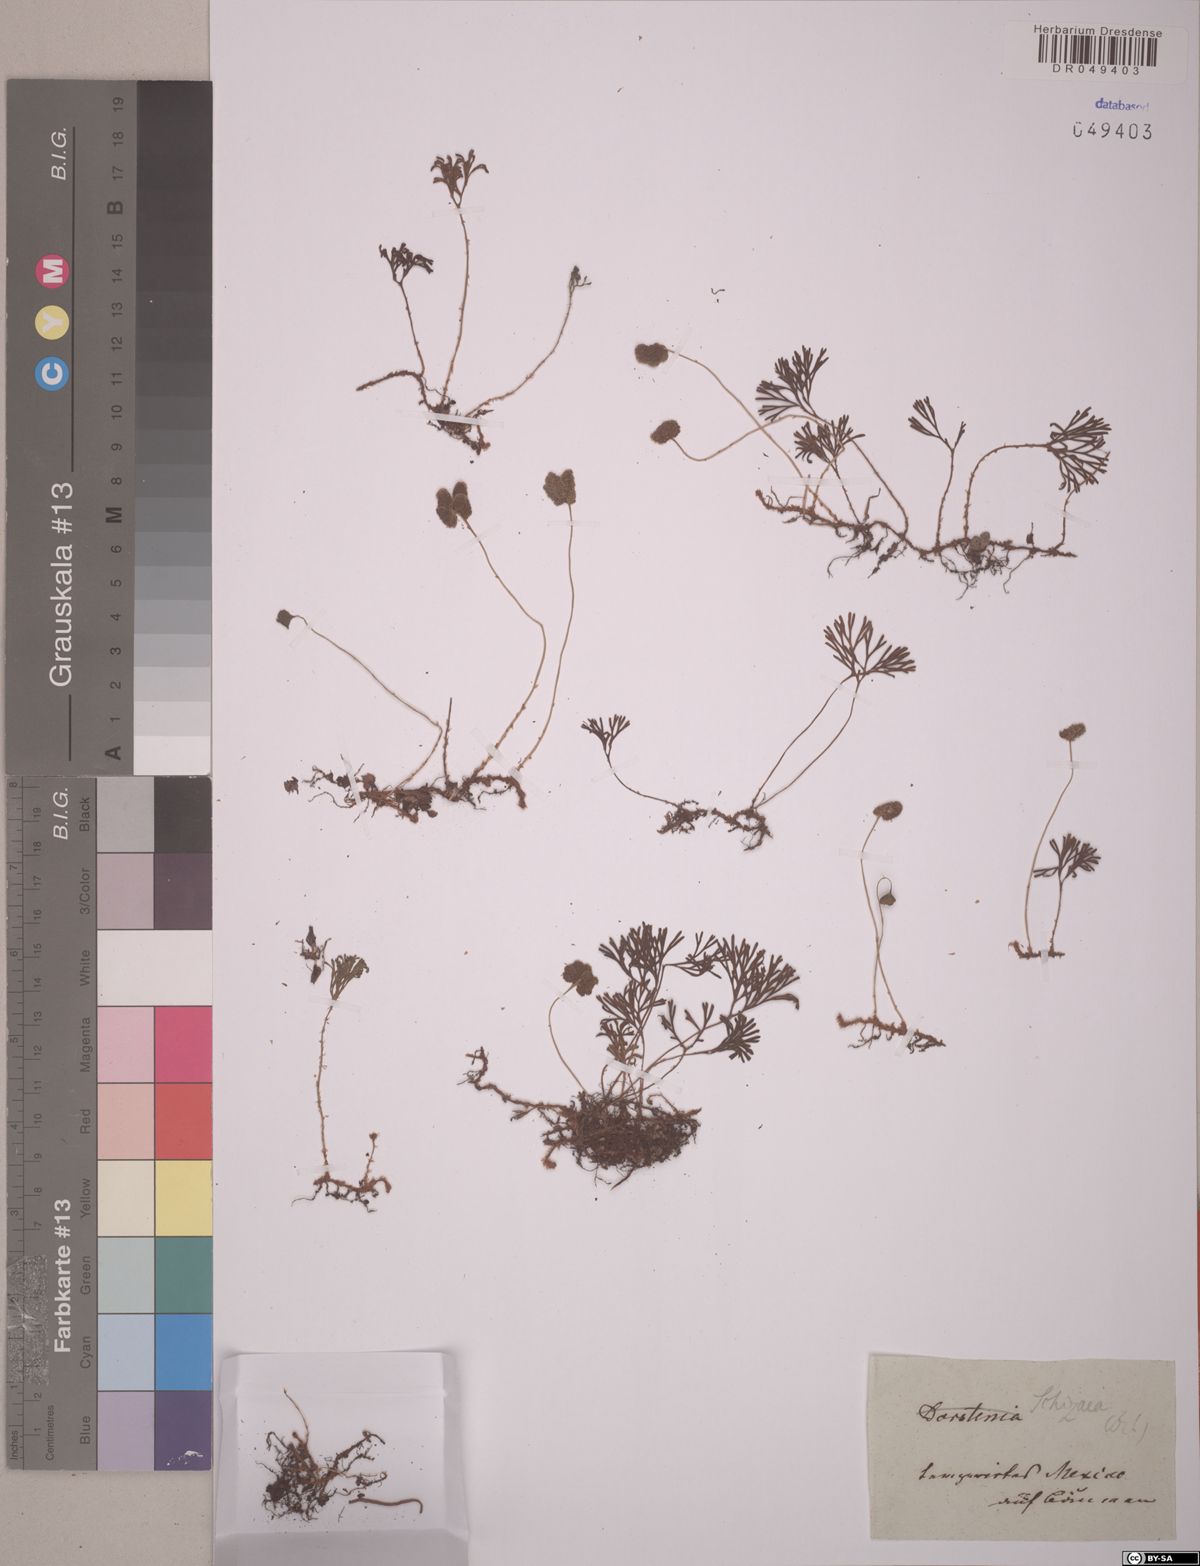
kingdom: Plantae
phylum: Tracheophyta
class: Polypodiopsida
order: Schizaeales
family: Schizaeaceae
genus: Schizaea
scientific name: Schizaea
